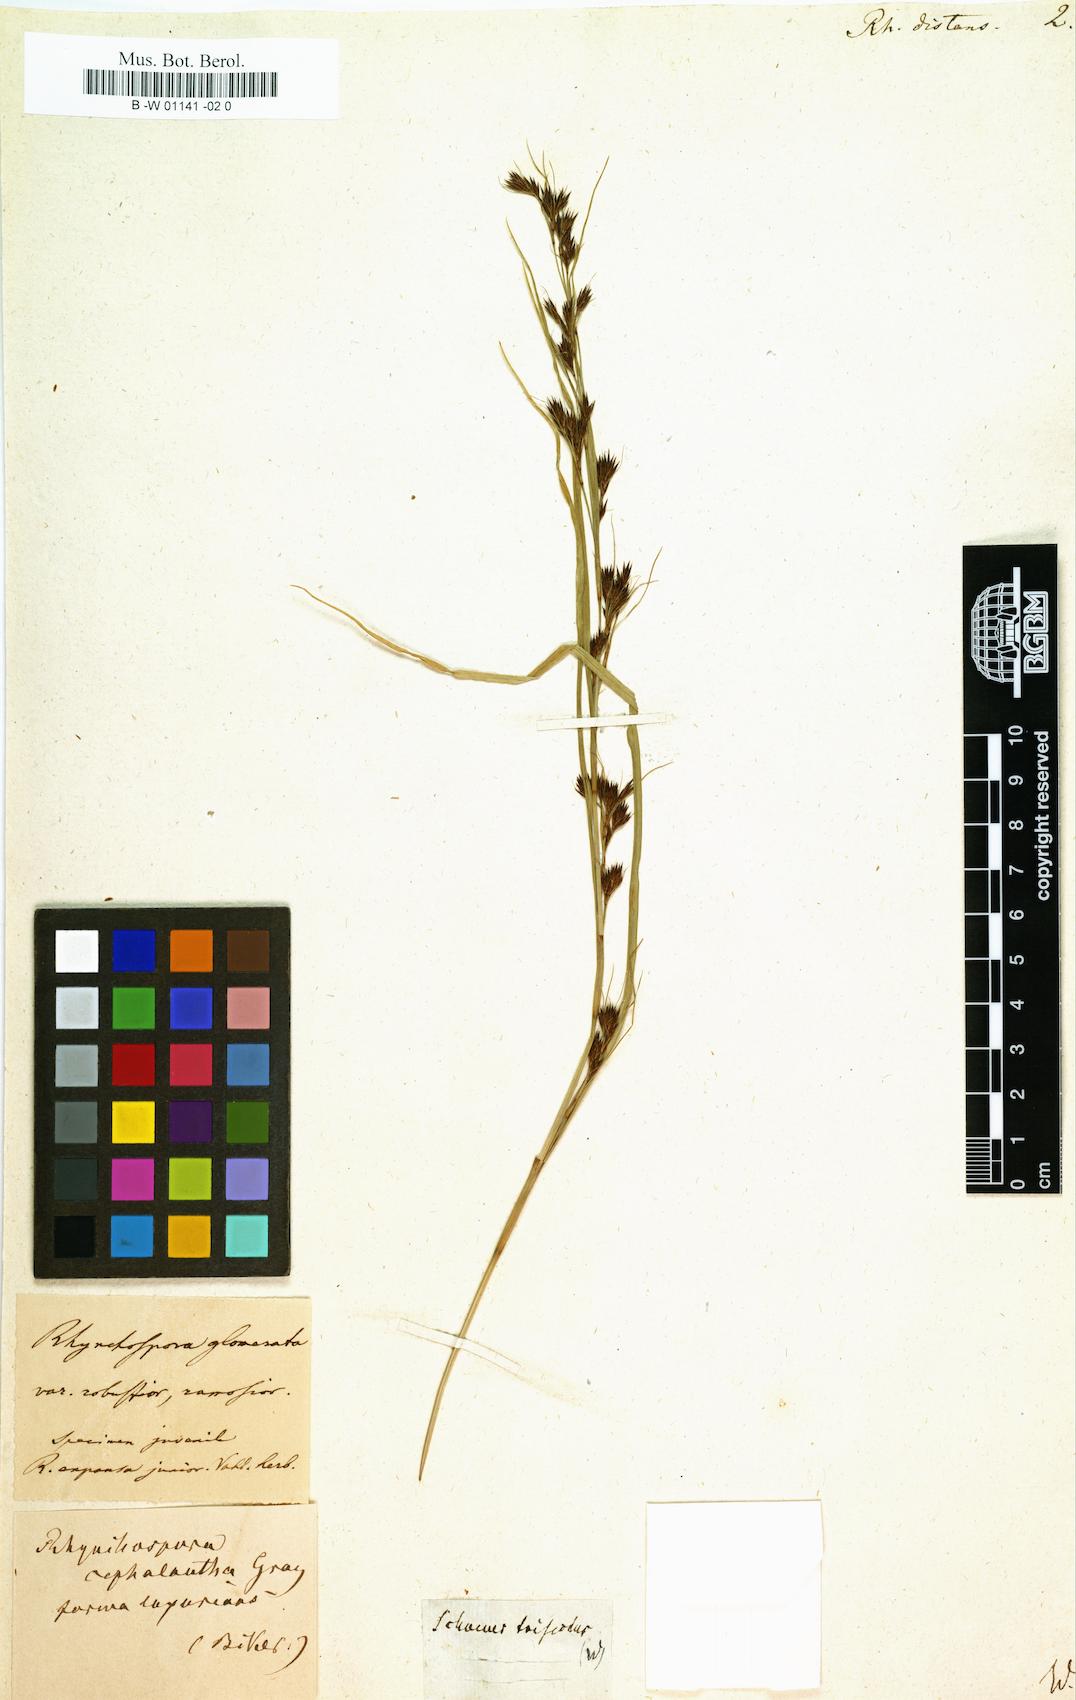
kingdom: Plantae
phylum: Tracheophyta
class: Liliopsida
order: Poales
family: Cyperaceae
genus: Rhynchospora
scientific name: Rhynchospora
